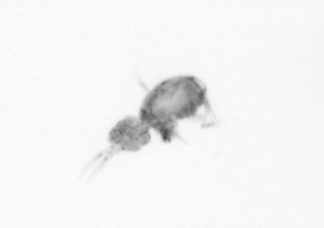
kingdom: Animalia
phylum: Arthropoda
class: Copepoda
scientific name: Copepoda
